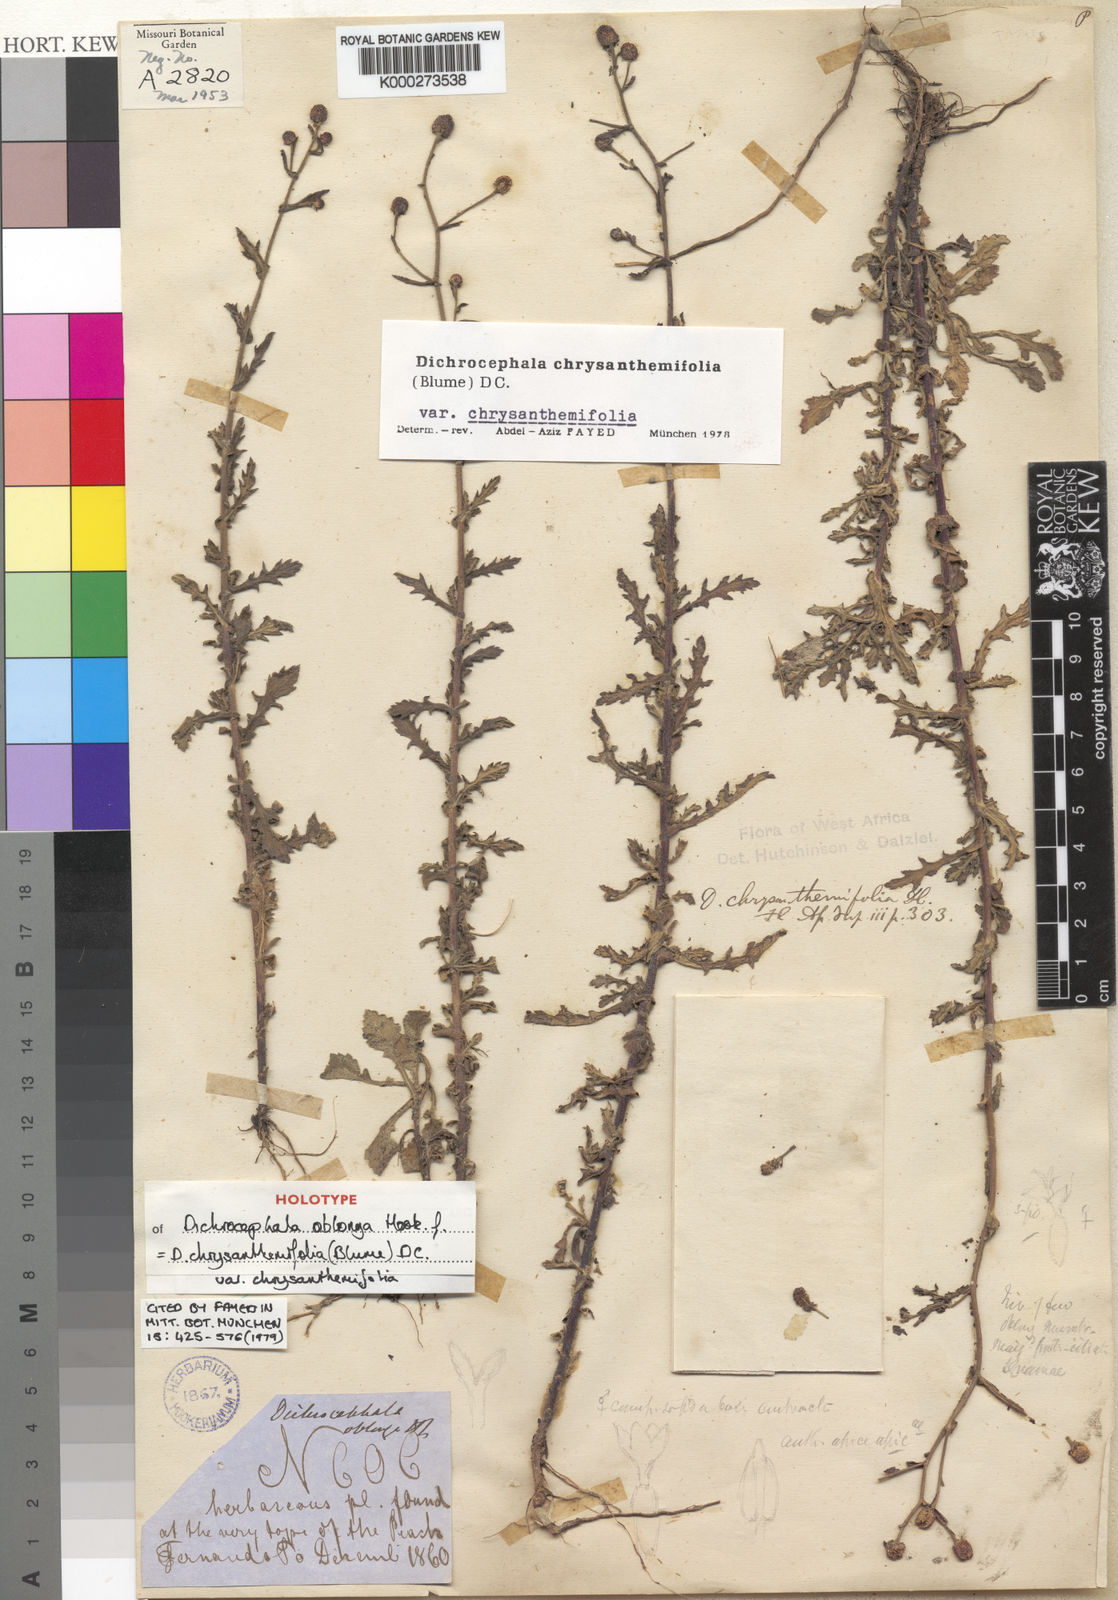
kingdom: Plantae
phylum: Tracheophyta
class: Magnoliopsida
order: Asterales
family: Asteraceae
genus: Dichrocephala
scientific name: Dichrocephala chrysanthemifolia
